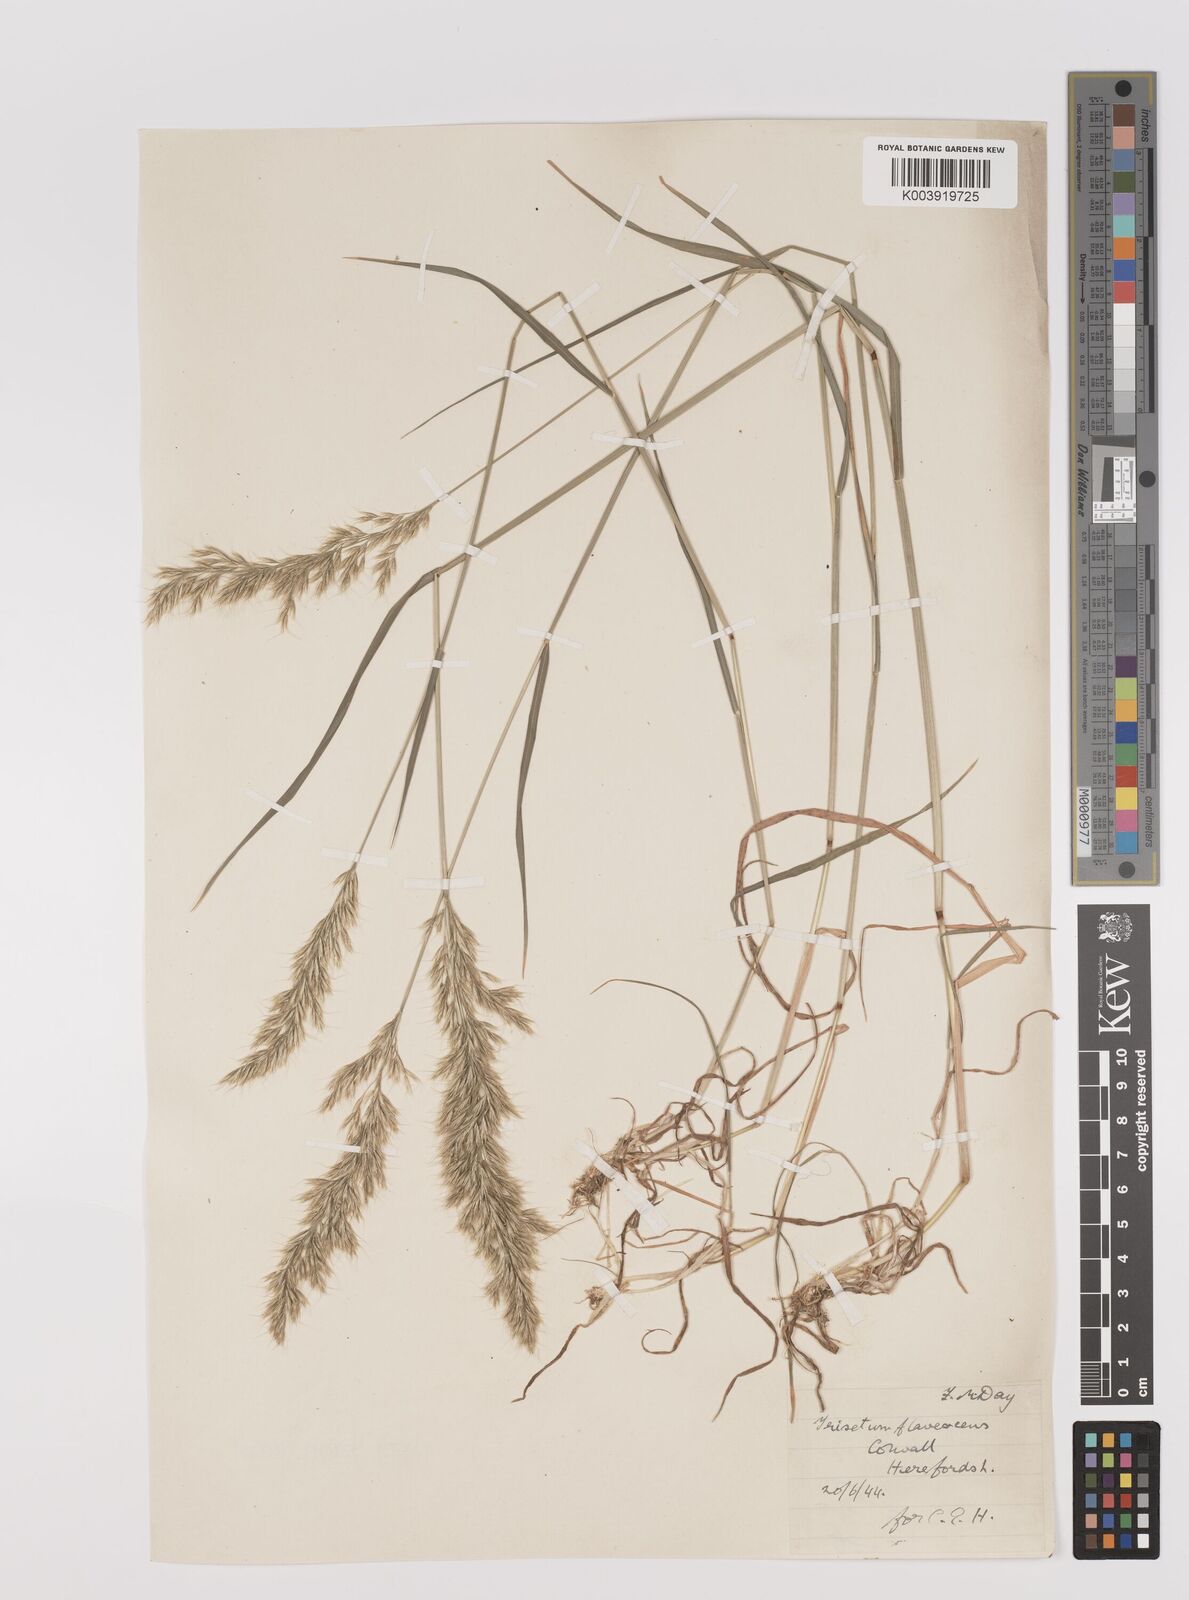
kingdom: Plantae
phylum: Tracheophyta
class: Liliopsida
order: Poales
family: Poaceae
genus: Trisetum
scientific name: Trisetum flavescens
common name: Yellow oat-grass
